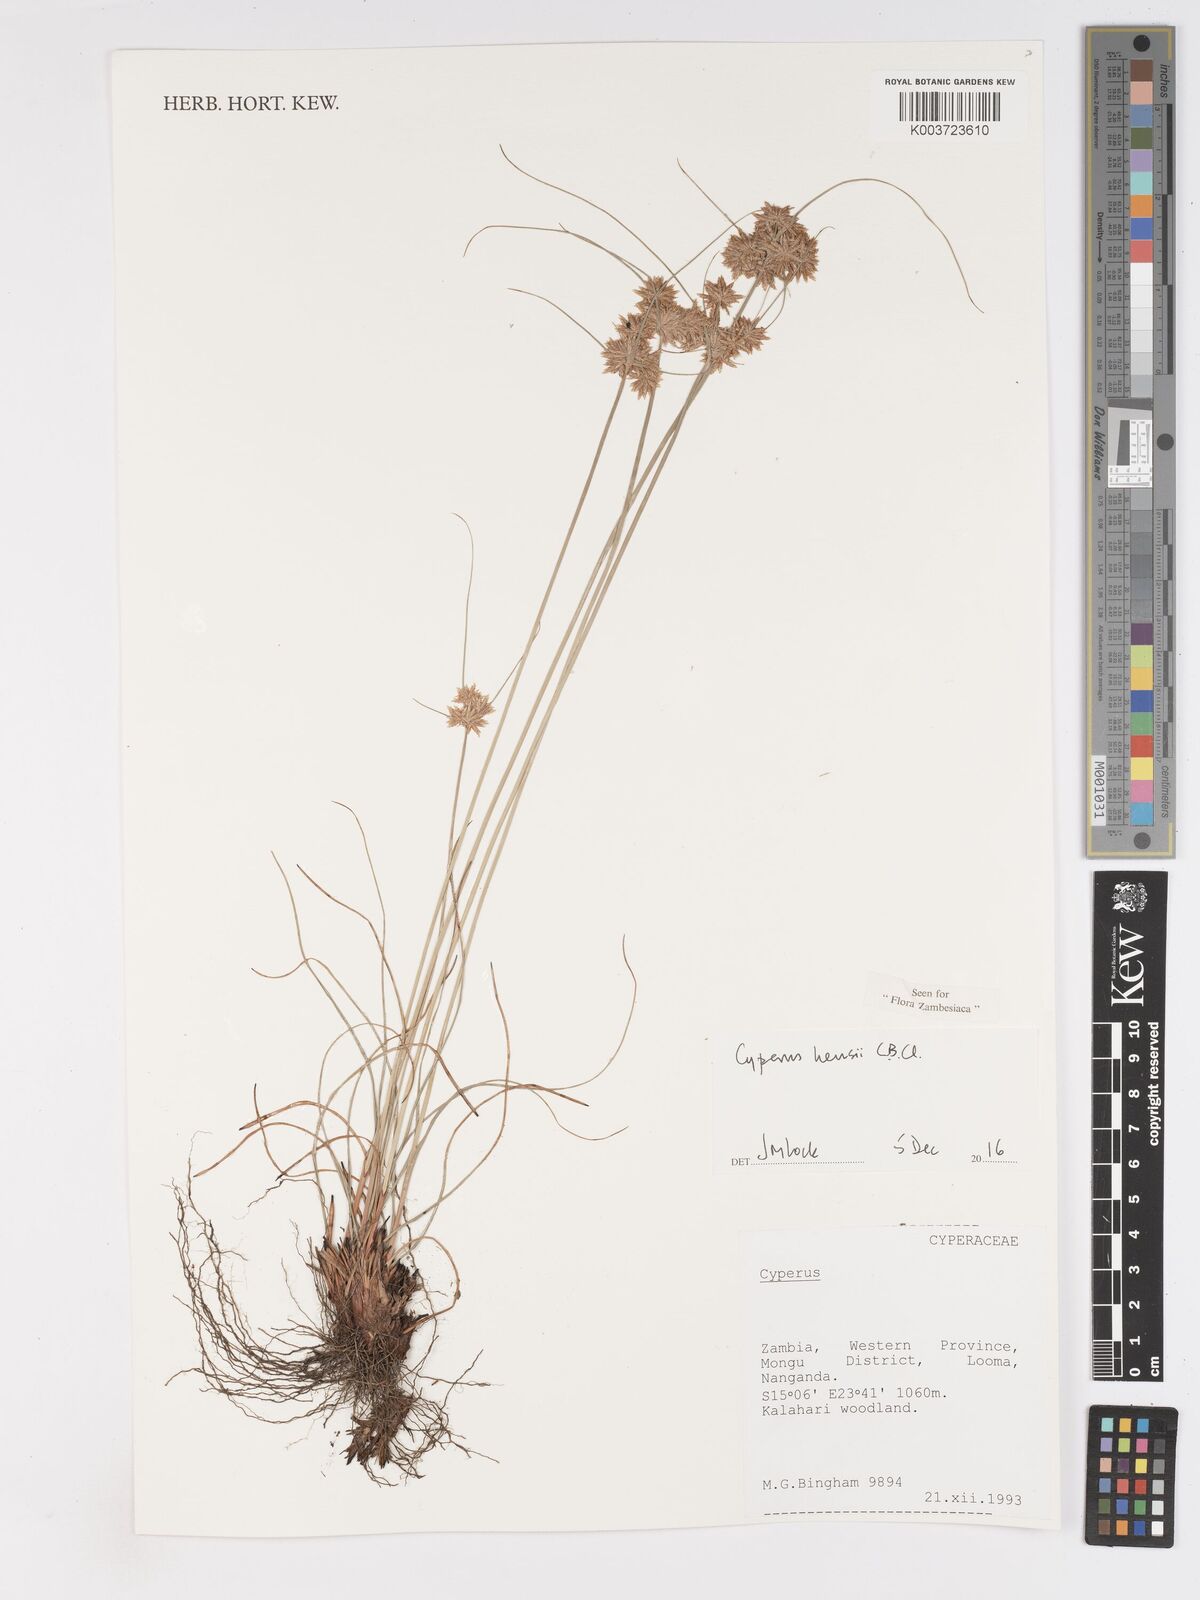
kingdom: Plantae
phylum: Tracheophyta
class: Liliopsida
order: Poales
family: Cyperaceae
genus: Cyperus
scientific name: Cyperus hensii
